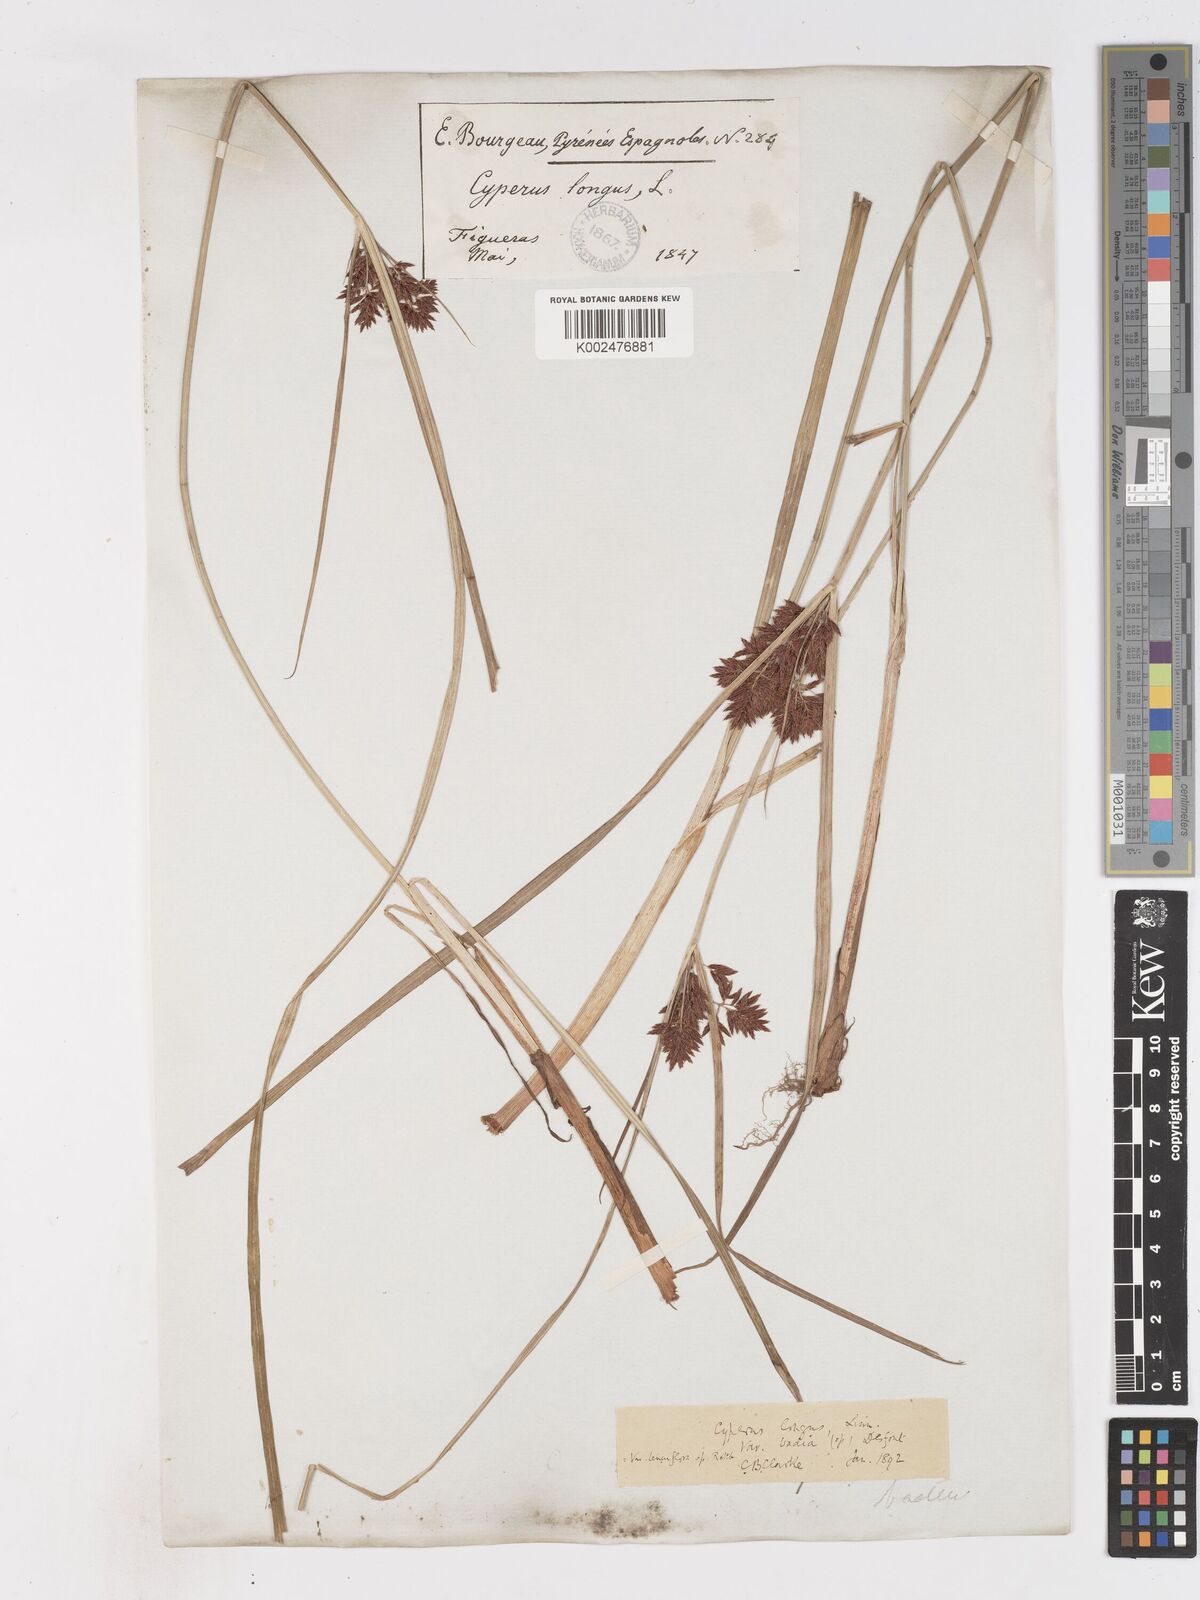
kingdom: Plantae
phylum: Tracheophyta
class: Liliopsida
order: Poales
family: Cyperaceae
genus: Cyperus
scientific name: Cyperus longus
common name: Galingale
